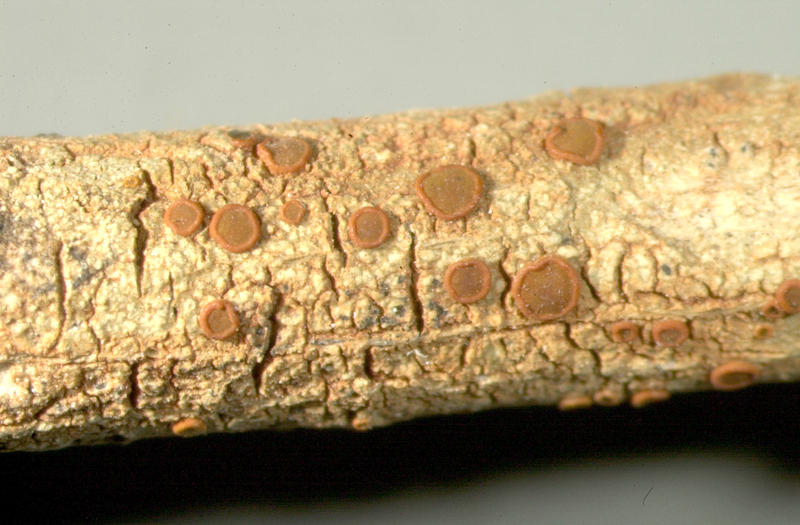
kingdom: Fungi
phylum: Ascomycota
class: Lecanoromycetes
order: Lecanorales
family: Lecanoraceae
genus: Lecidella
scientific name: Lecidella
